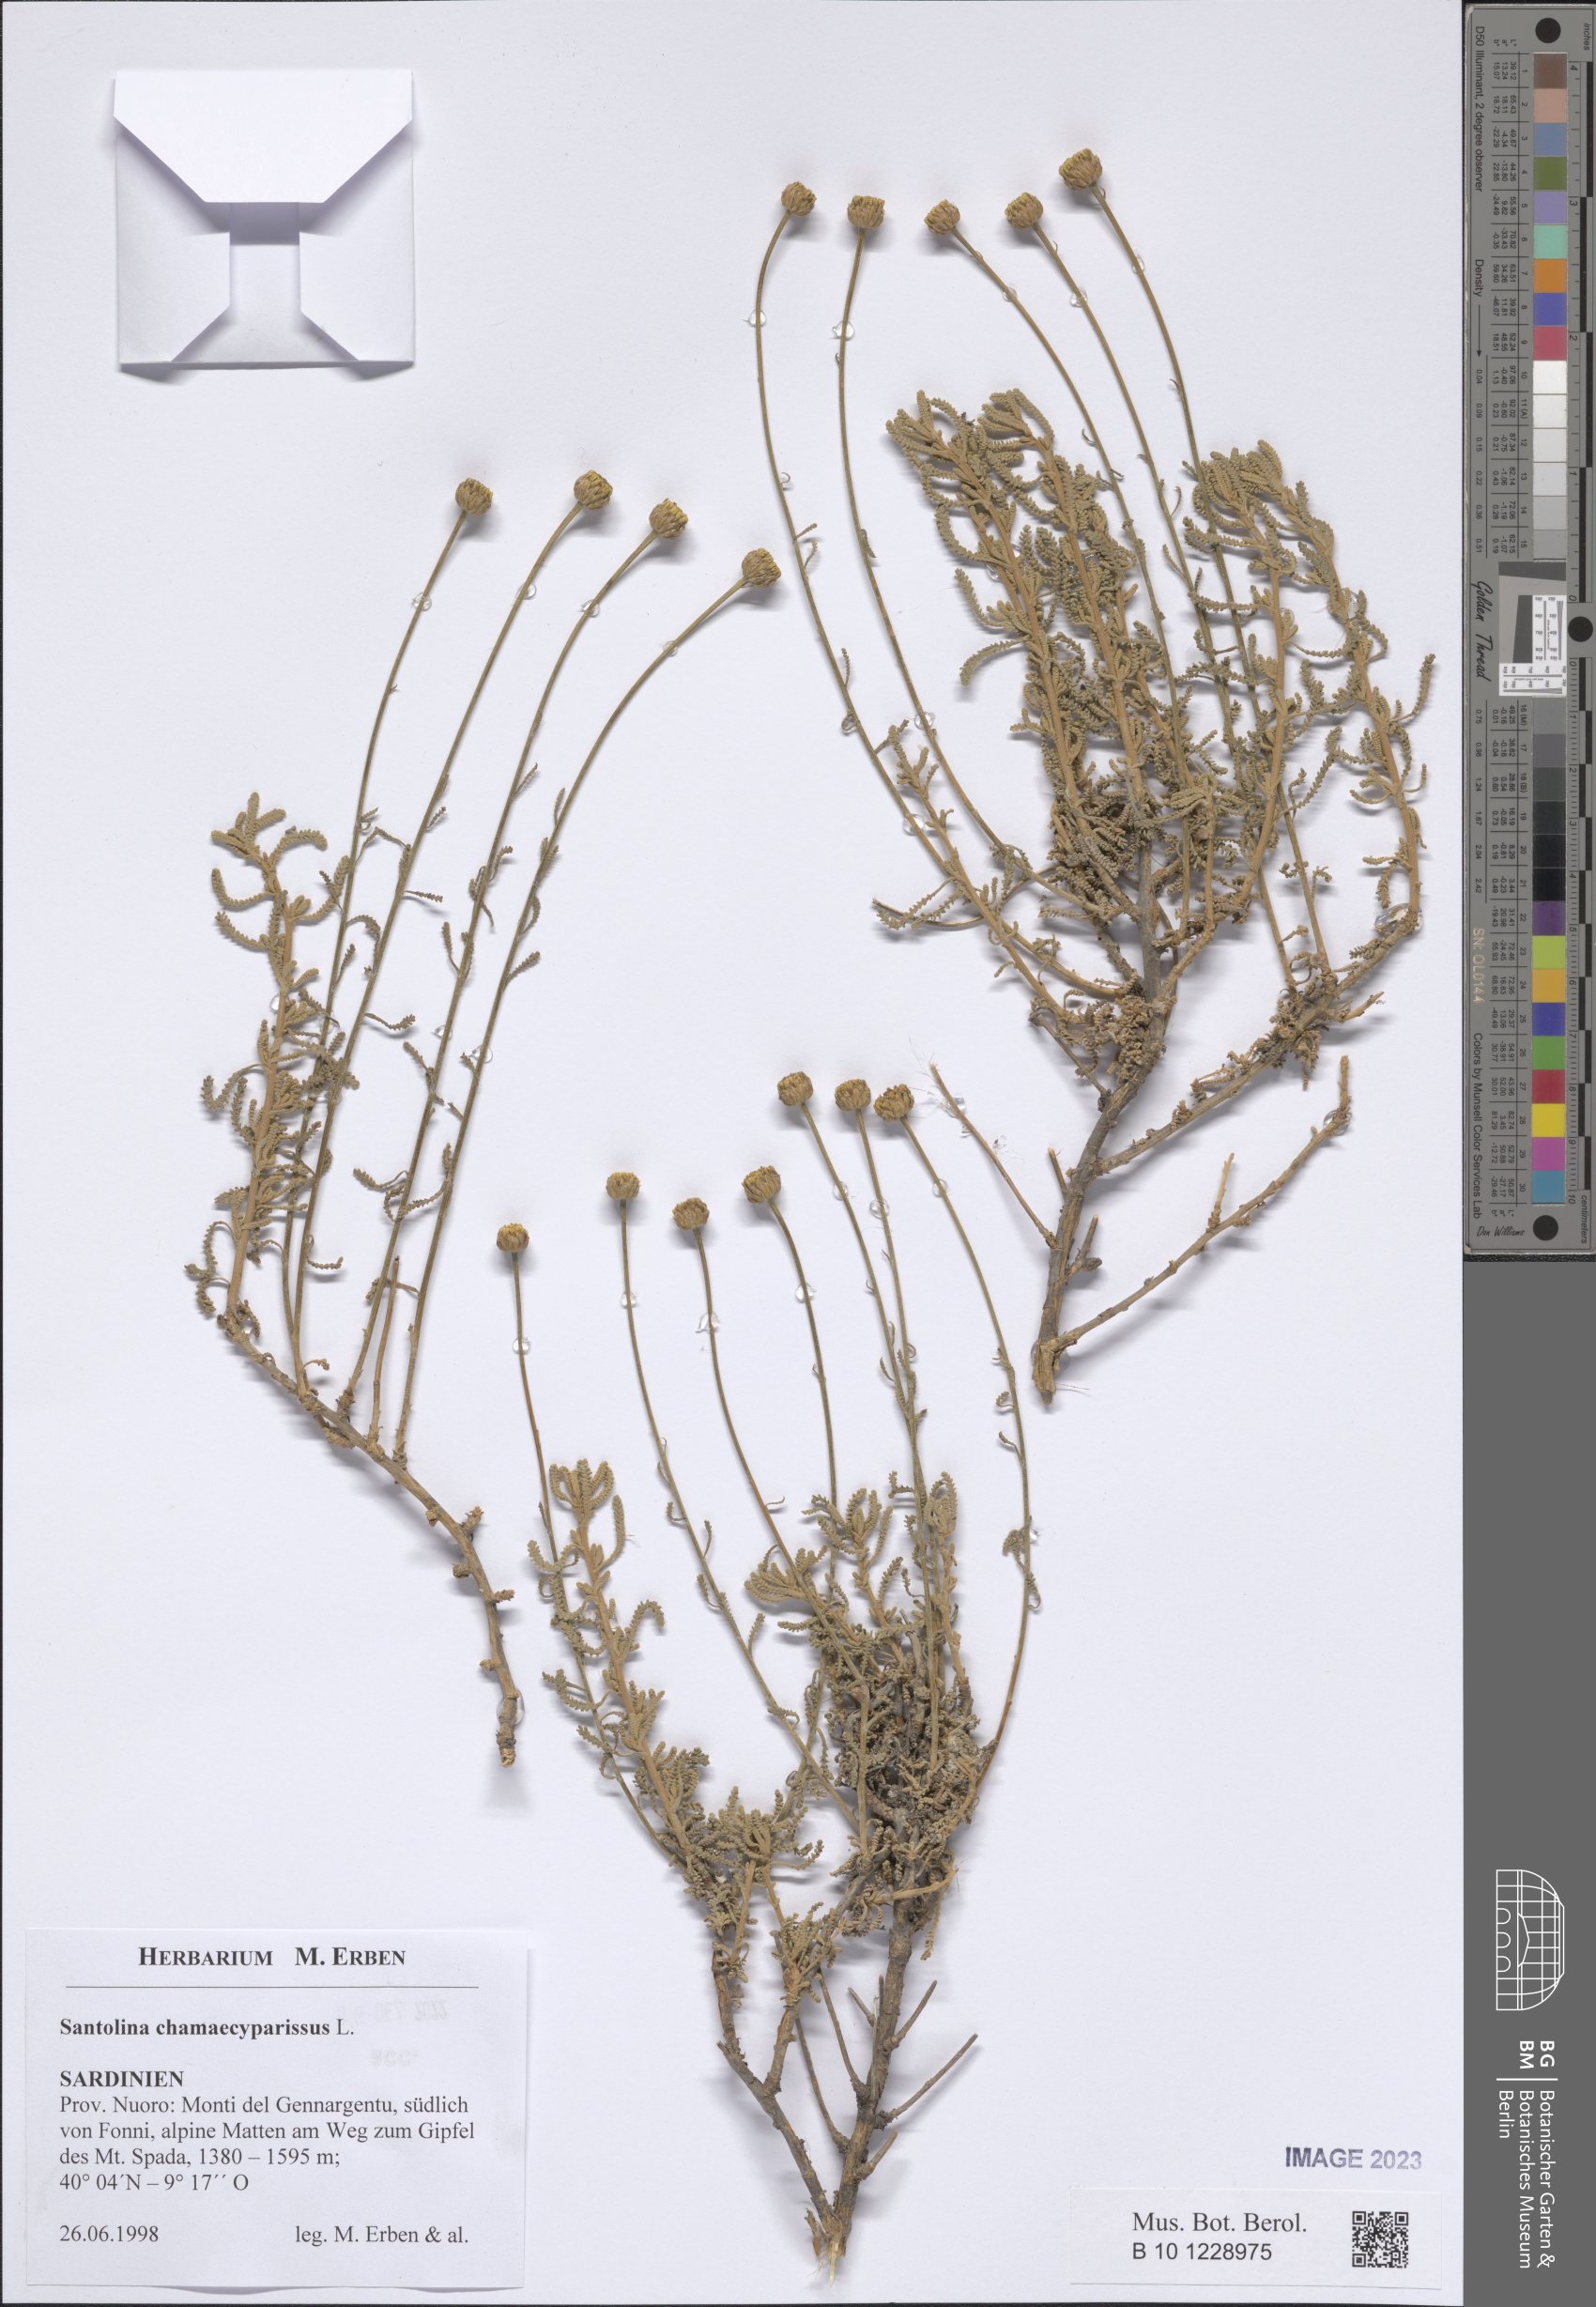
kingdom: Plantae
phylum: Tracheophyta
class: Magnoliopsida
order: Asterales
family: Asteraceae
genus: Santolina
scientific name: Santolina chamaecyparissus
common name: Lavender-cotton
